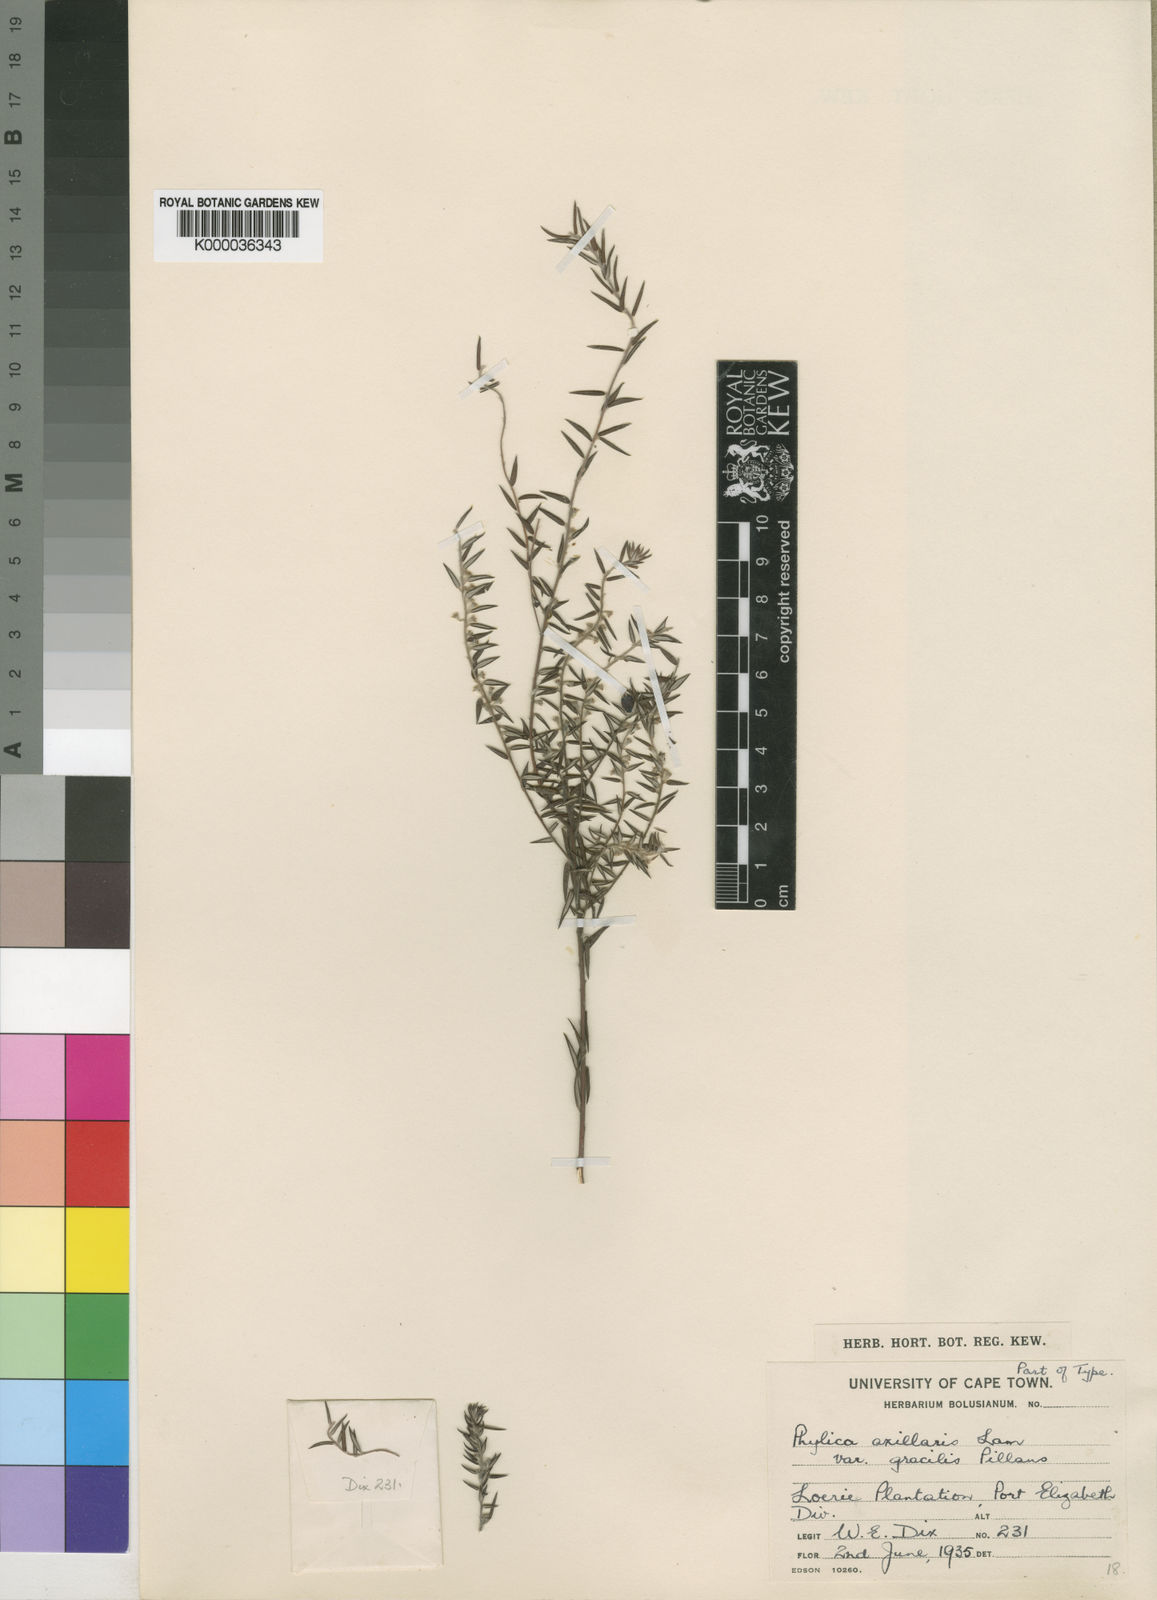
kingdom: Plantae
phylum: Tracheophyta
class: Magnoliopsida
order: Rosales
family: Rhamnaceae
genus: Phylica
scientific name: Phylica axillaris
